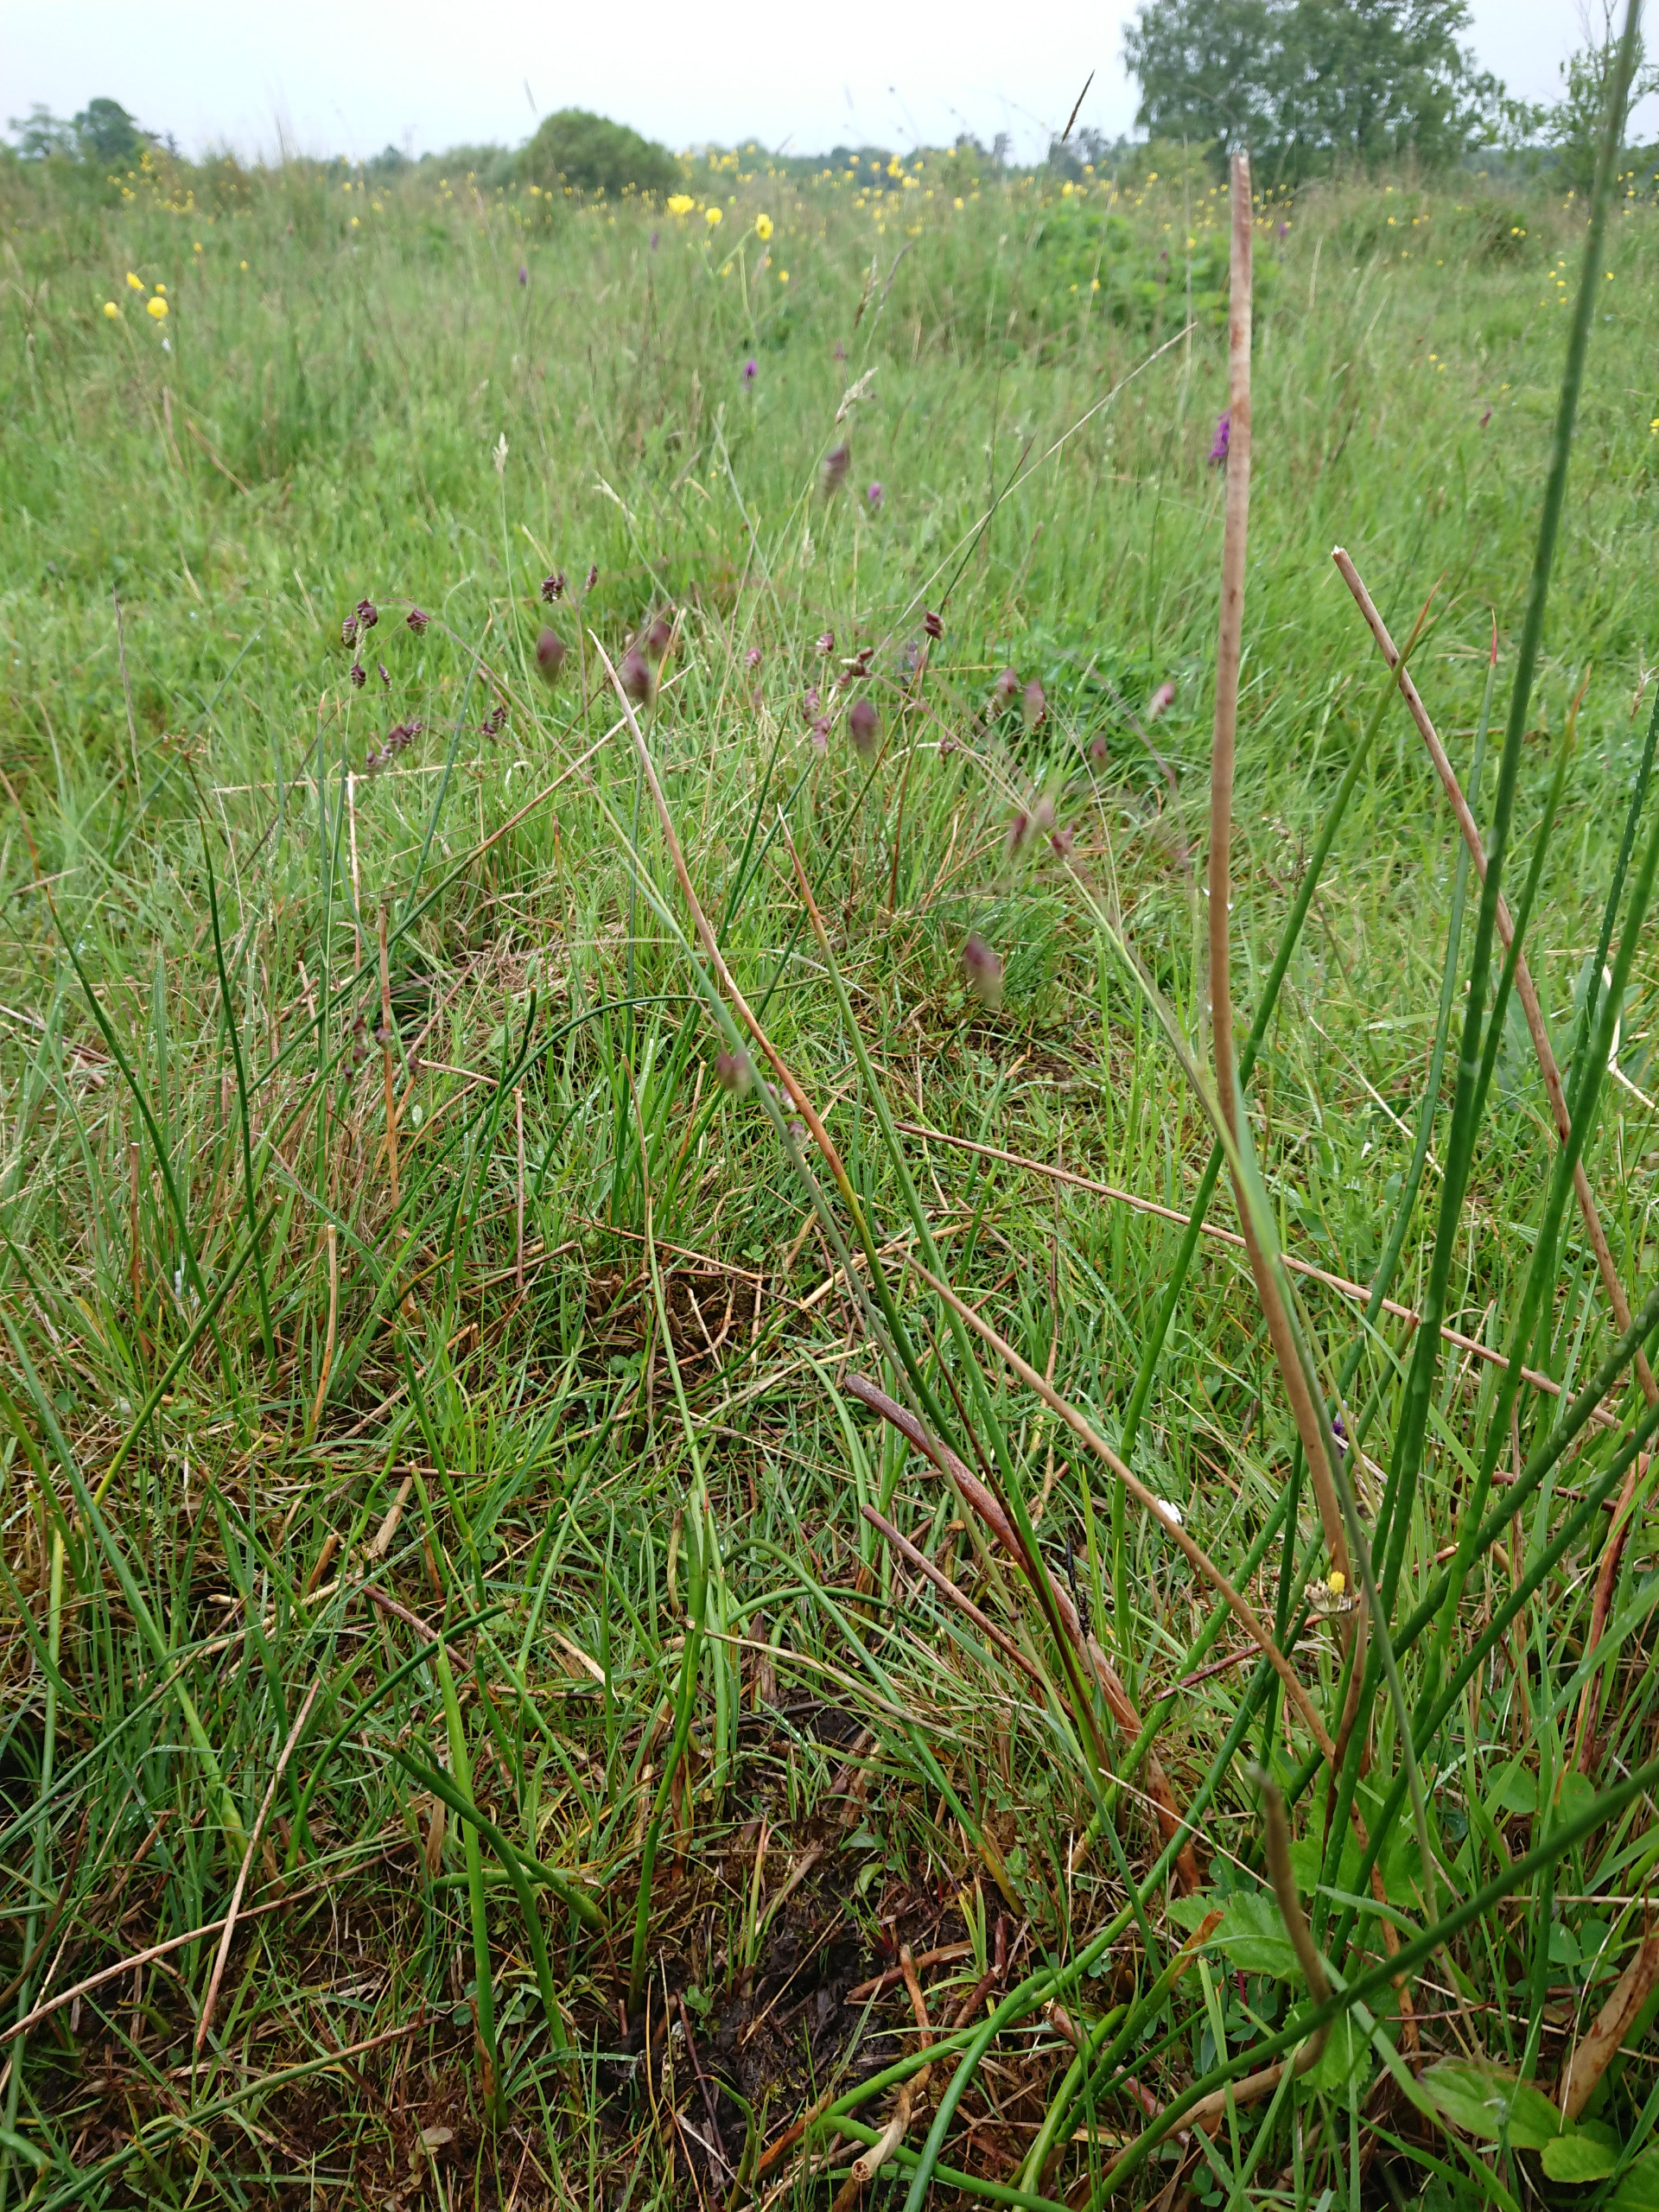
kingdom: Plantae
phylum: Tracheophyta
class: Liliopsida
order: Poales
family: Poaceae
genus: Briza
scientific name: Briza media
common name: Hjertegræs
